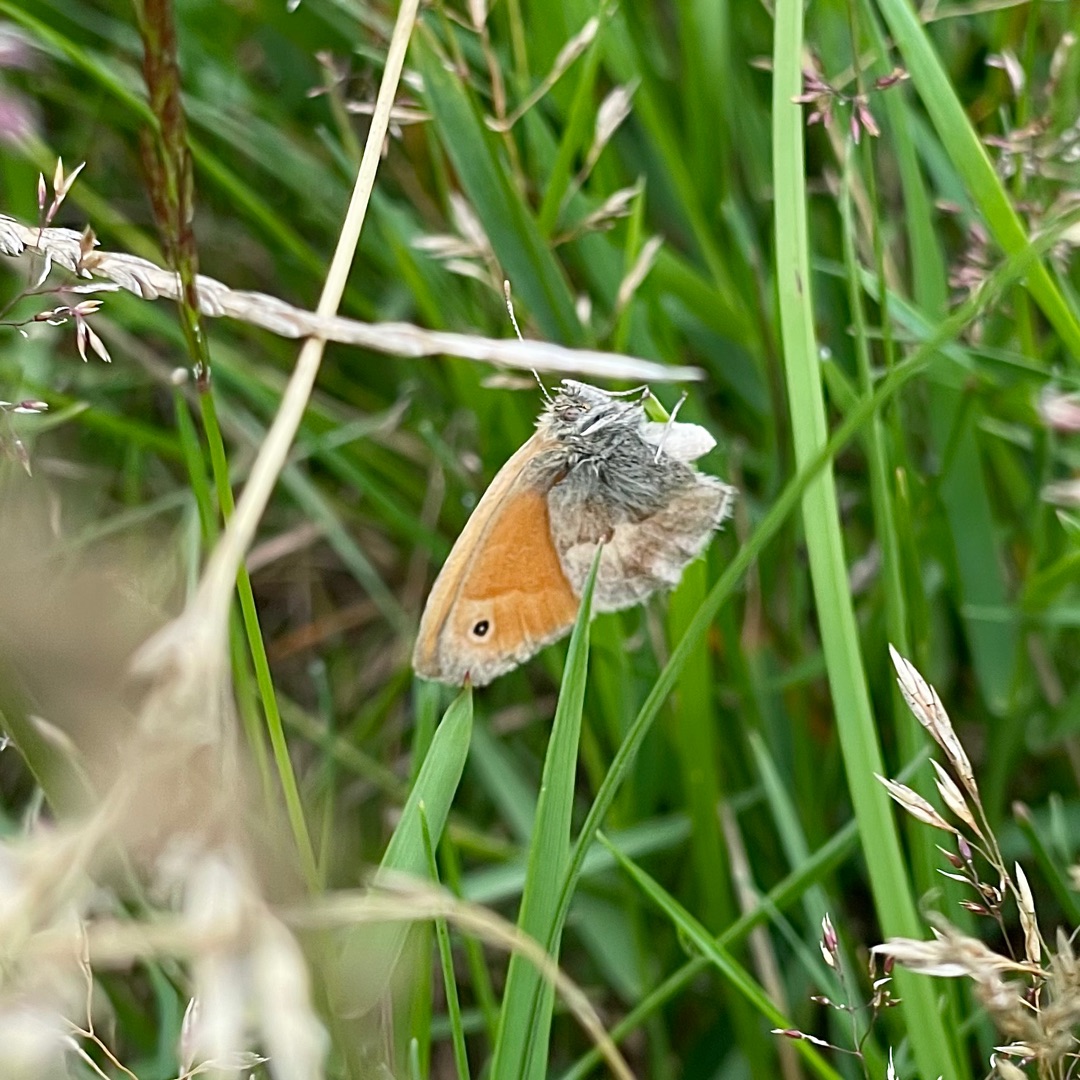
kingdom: Animalia
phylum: Arthropoda
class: Insecta
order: Lepidoptera
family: Nymphalidae
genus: Coenonympha
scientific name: Coenonympha pamphilus
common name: Okkergul randøje
